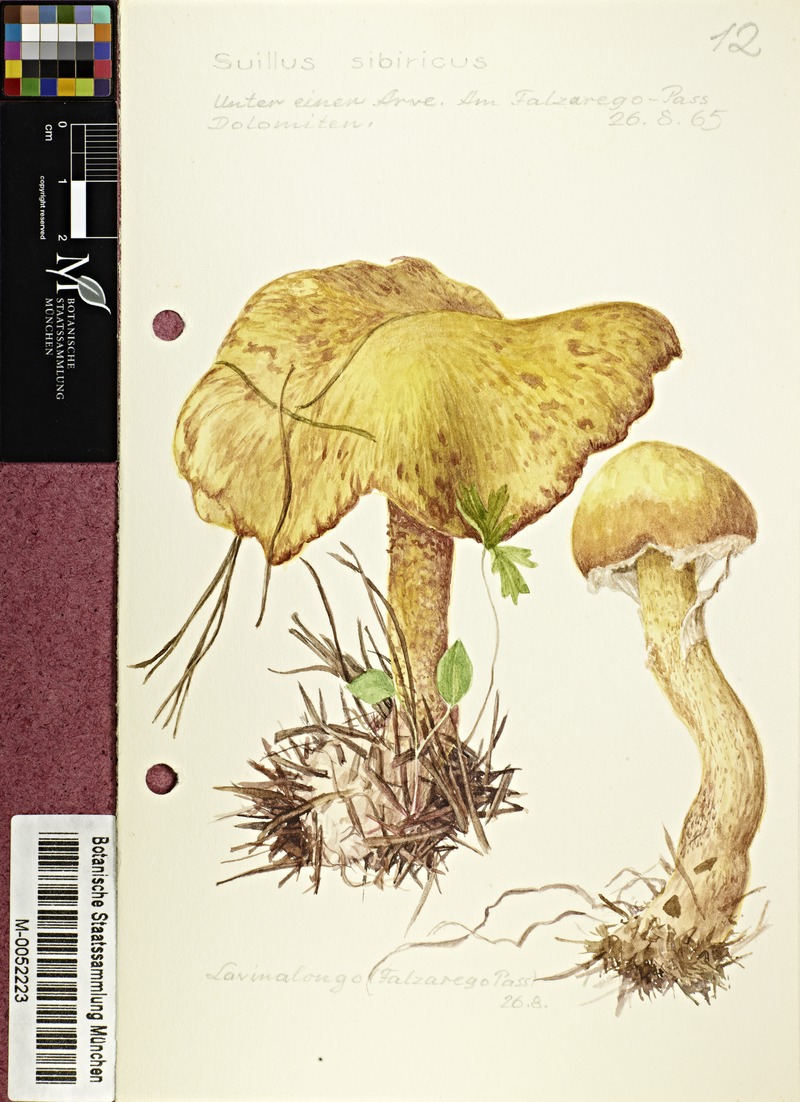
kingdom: Fungi
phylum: Basidiomycota
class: Agaricomycetes
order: Boletales
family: Suillaceae
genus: Suillus
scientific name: Suillus americanus
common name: Chicken fat mushroom
